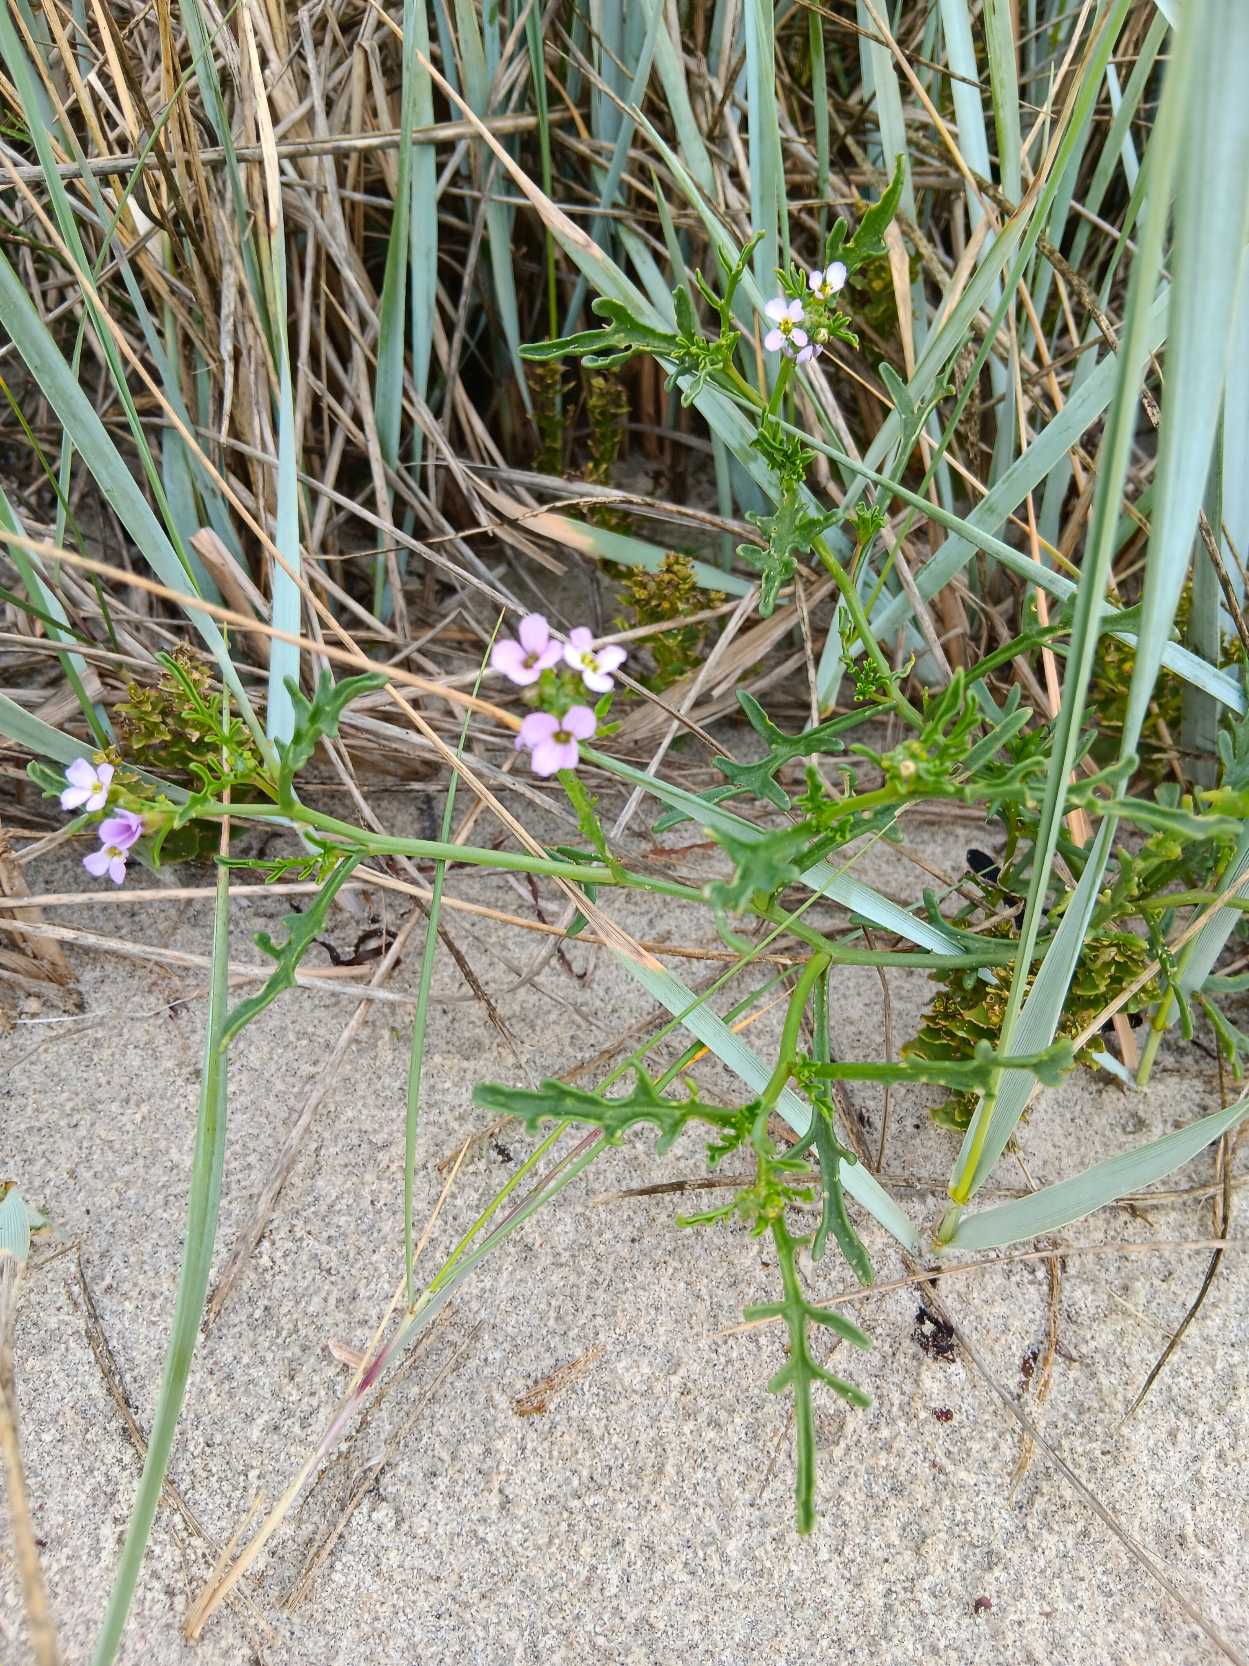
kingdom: Plantae
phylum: Tracheophyta
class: Magnoliopsida
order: Brassicales
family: Brassicaceae
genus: Cakile
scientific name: Cakile maritima
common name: Strandsennep
